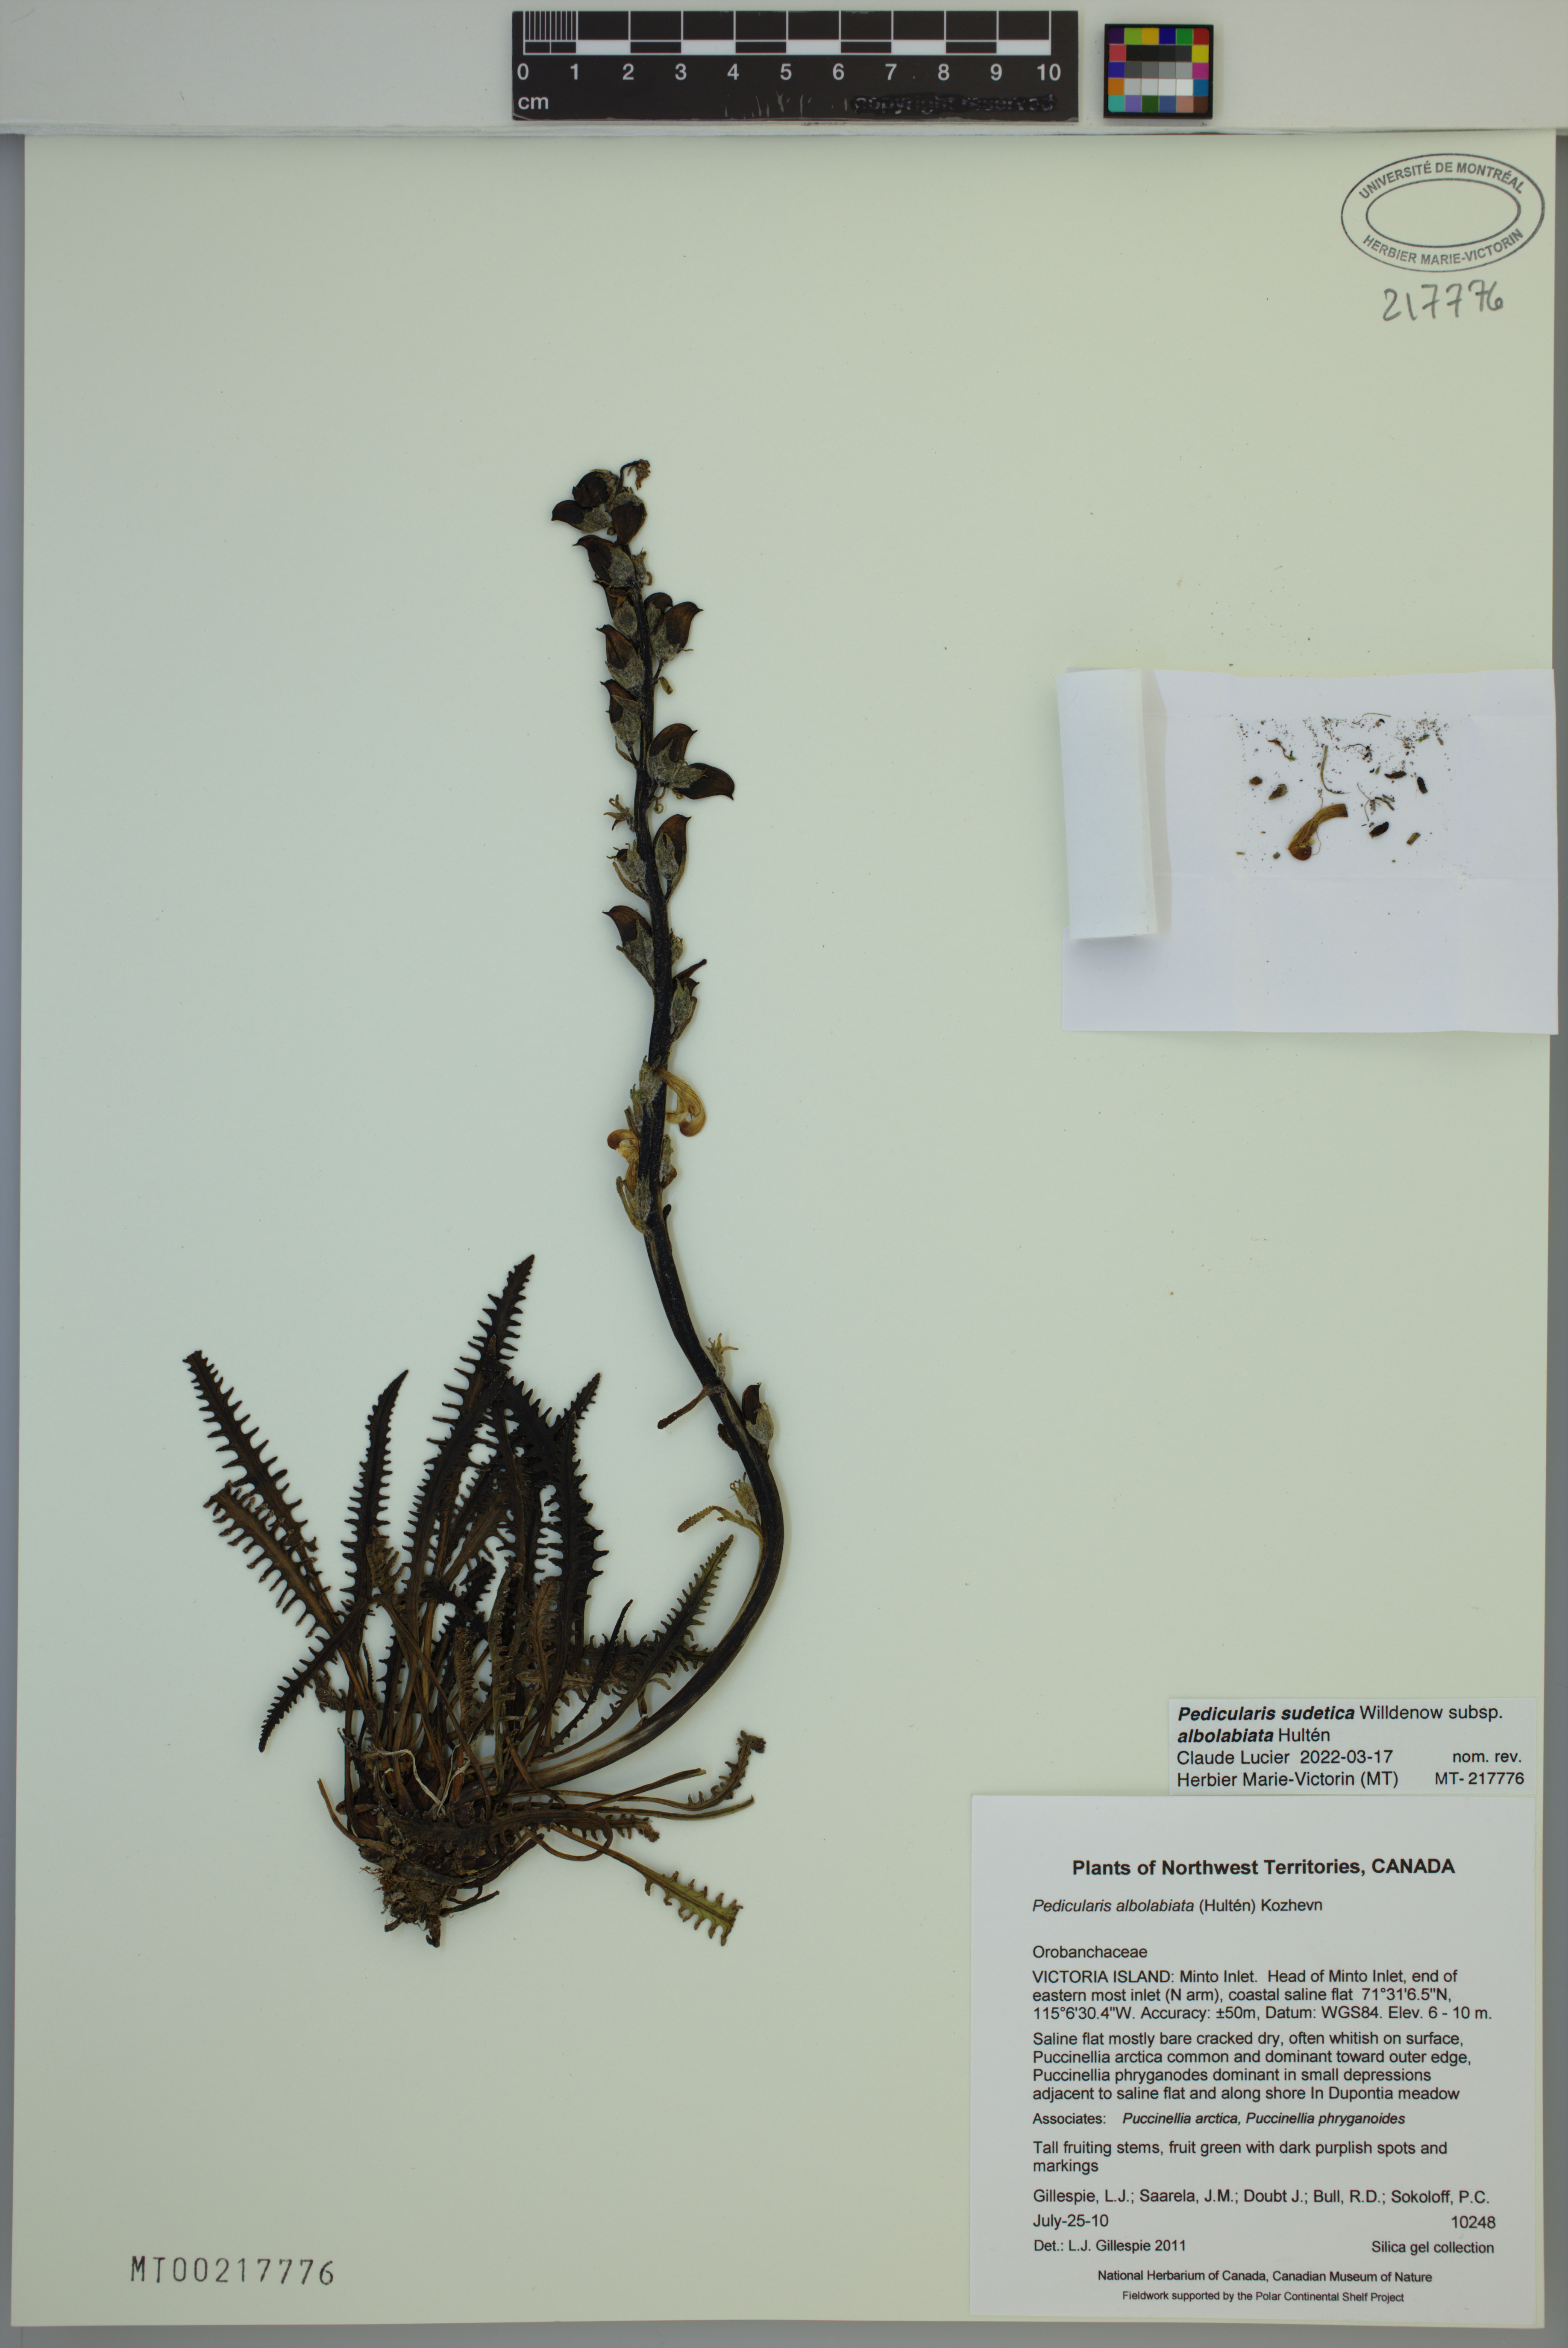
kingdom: Plantae
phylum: Tracheophyta
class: Magnoliopsida
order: Lamiales
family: Orobanchaceae
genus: Pedicularis
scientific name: Pedicularis novaiae-zemliae
